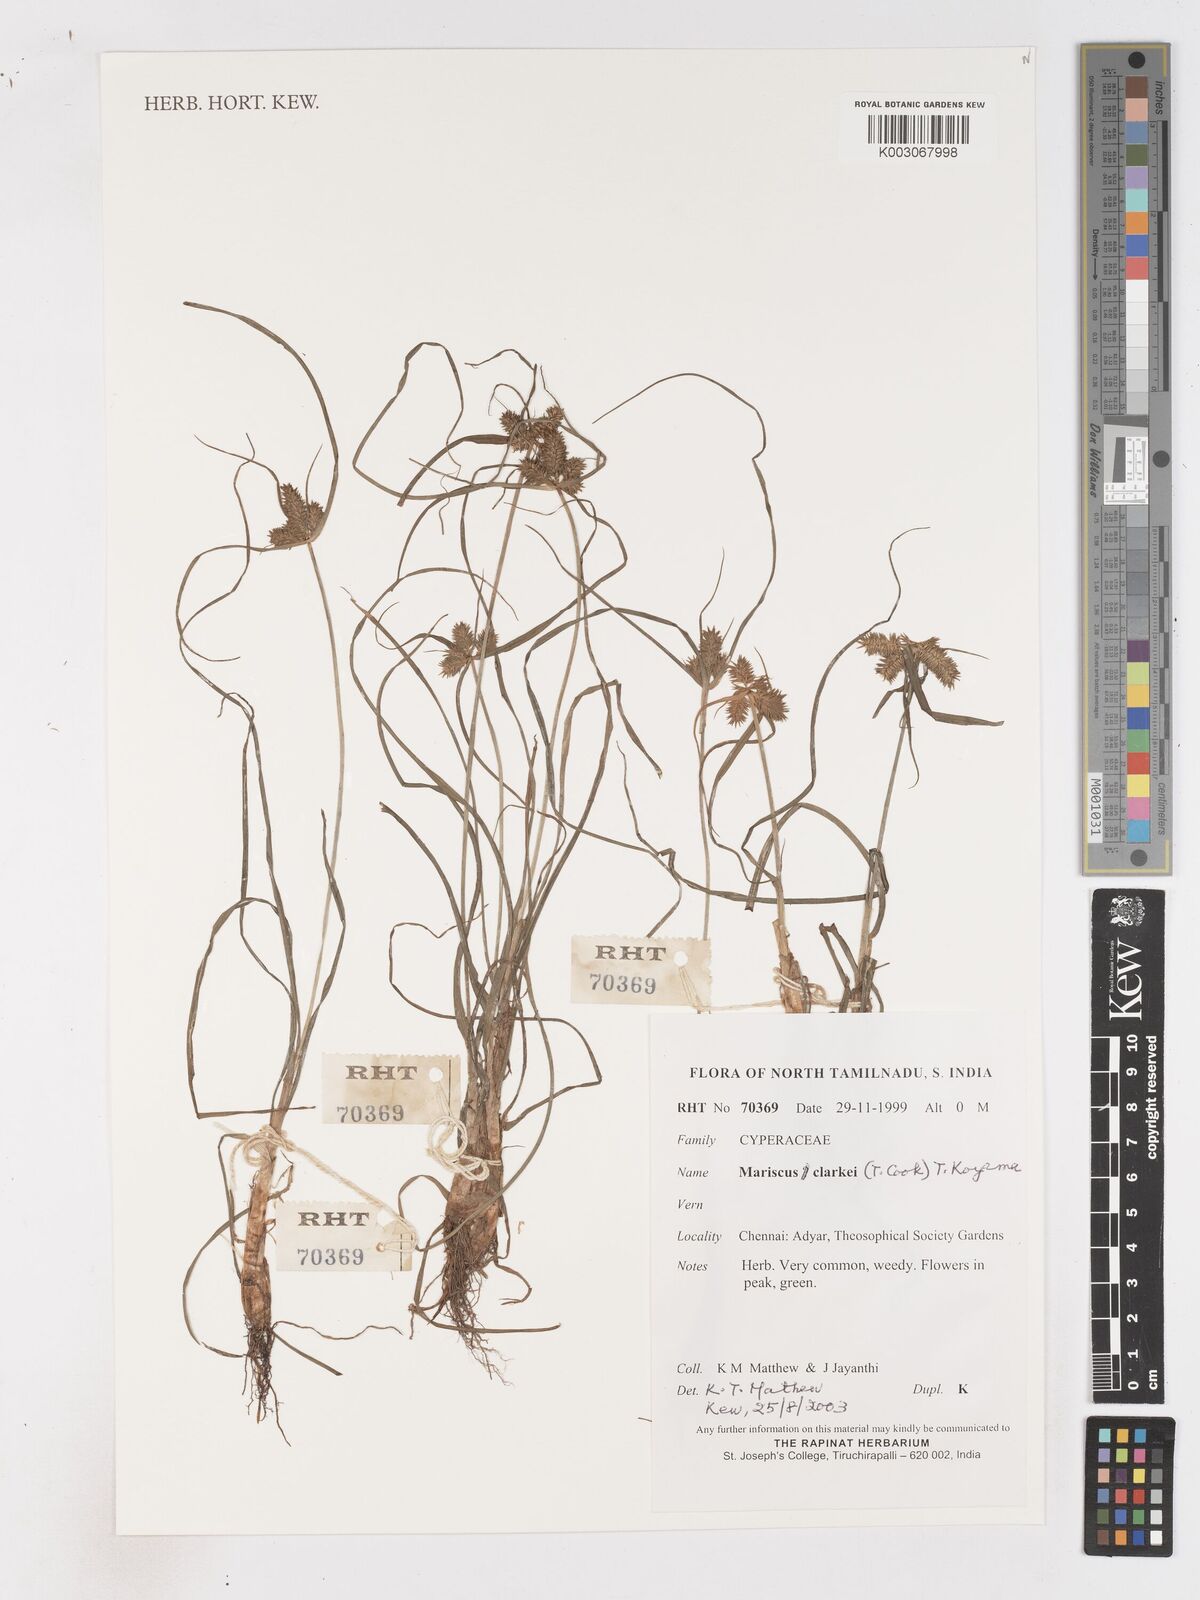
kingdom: Plantae
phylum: Tracheophyta
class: Liliopsida
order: Poales
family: Cyperaceae
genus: Cyperus
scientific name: Cyperus clarkei
